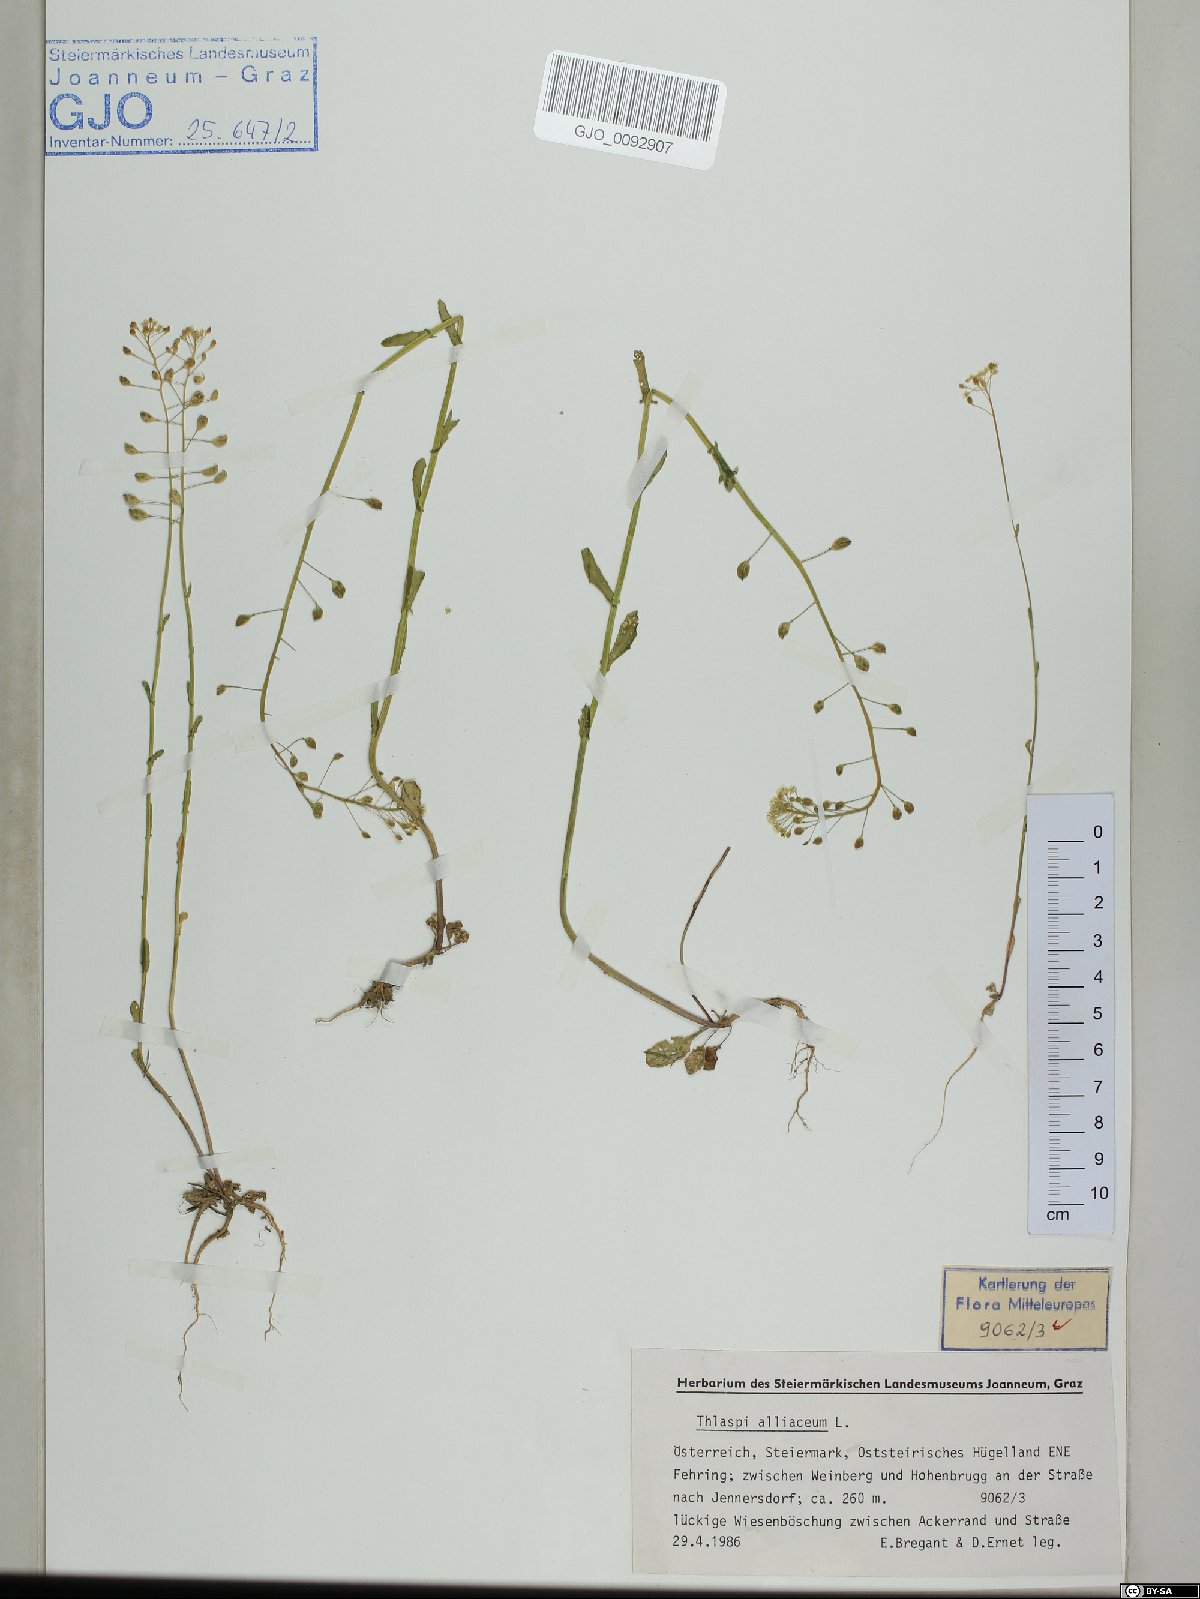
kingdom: Plantae
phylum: Tracheophyta
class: Magnoliopsida
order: Brassicales
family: Brassicaceae
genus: Mummenhoffia
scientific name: Mummenhoffia alliacea
